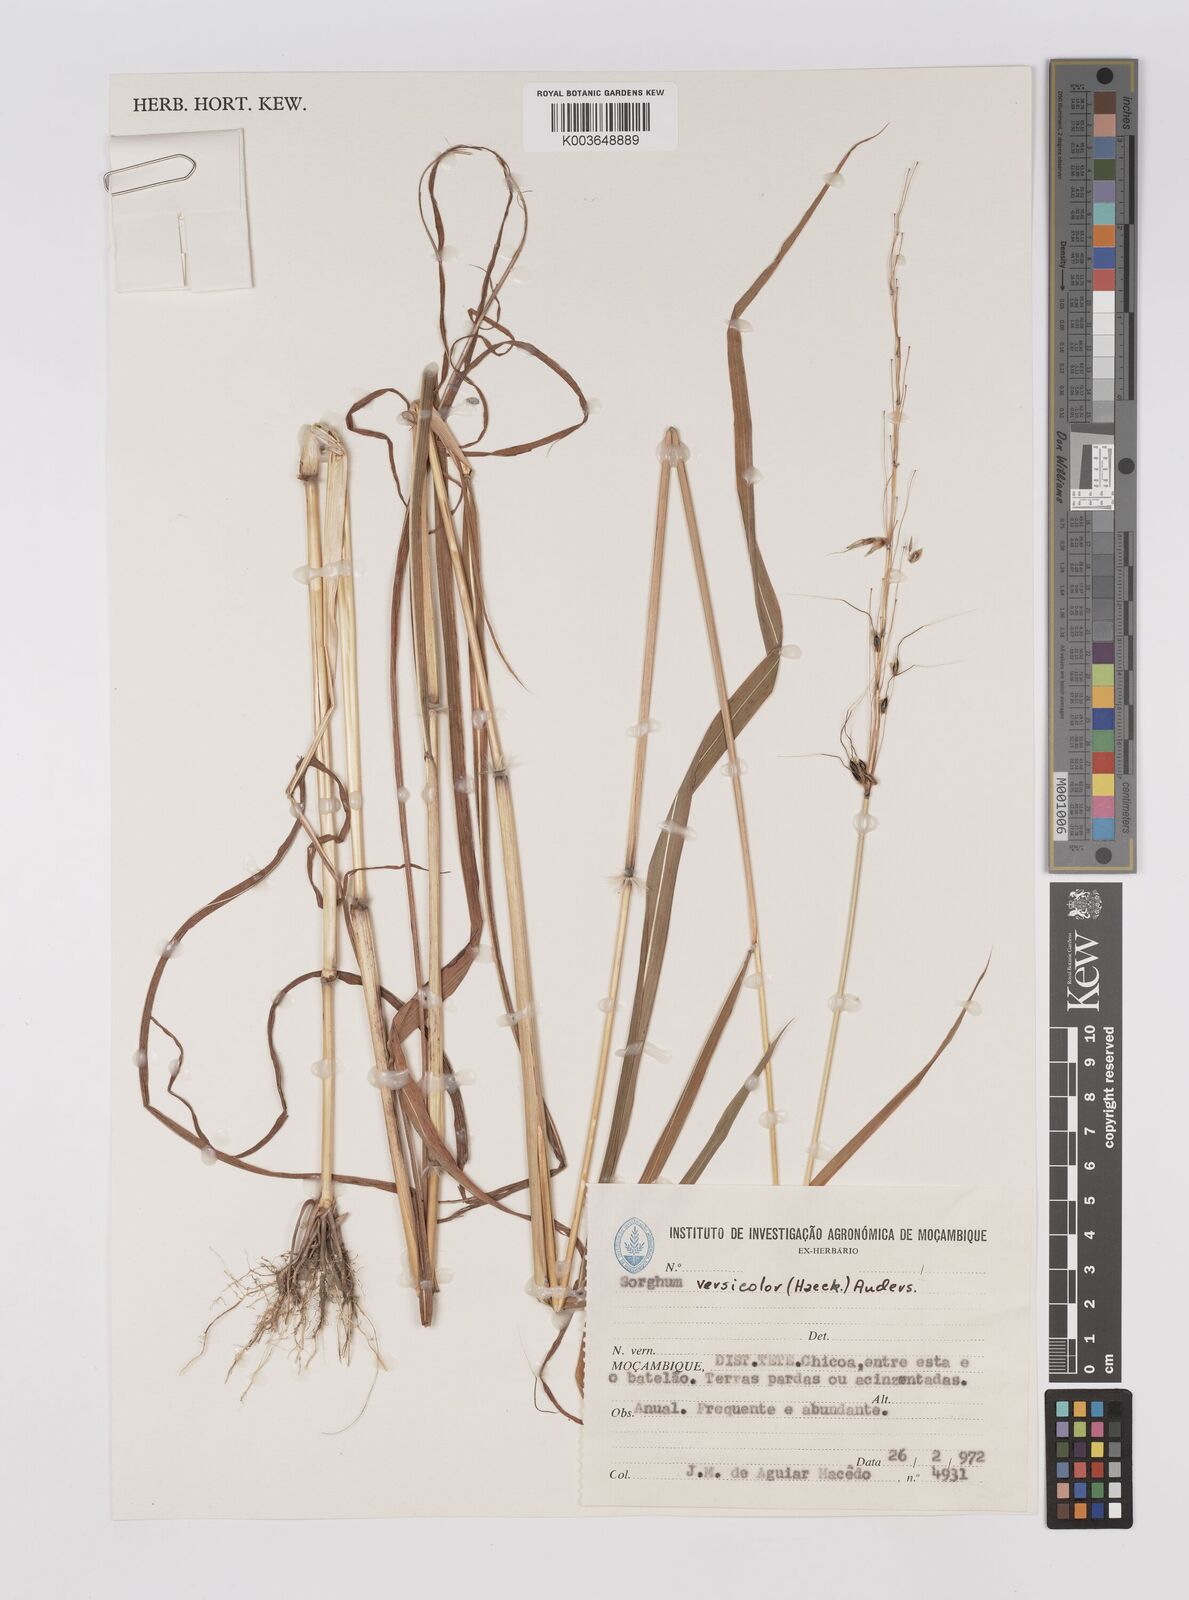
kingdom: Plantae
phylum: Tracheophyta
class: Liliopsida
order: Poales
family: Poaceae
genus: Sarga
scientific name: Sarga versicolor
